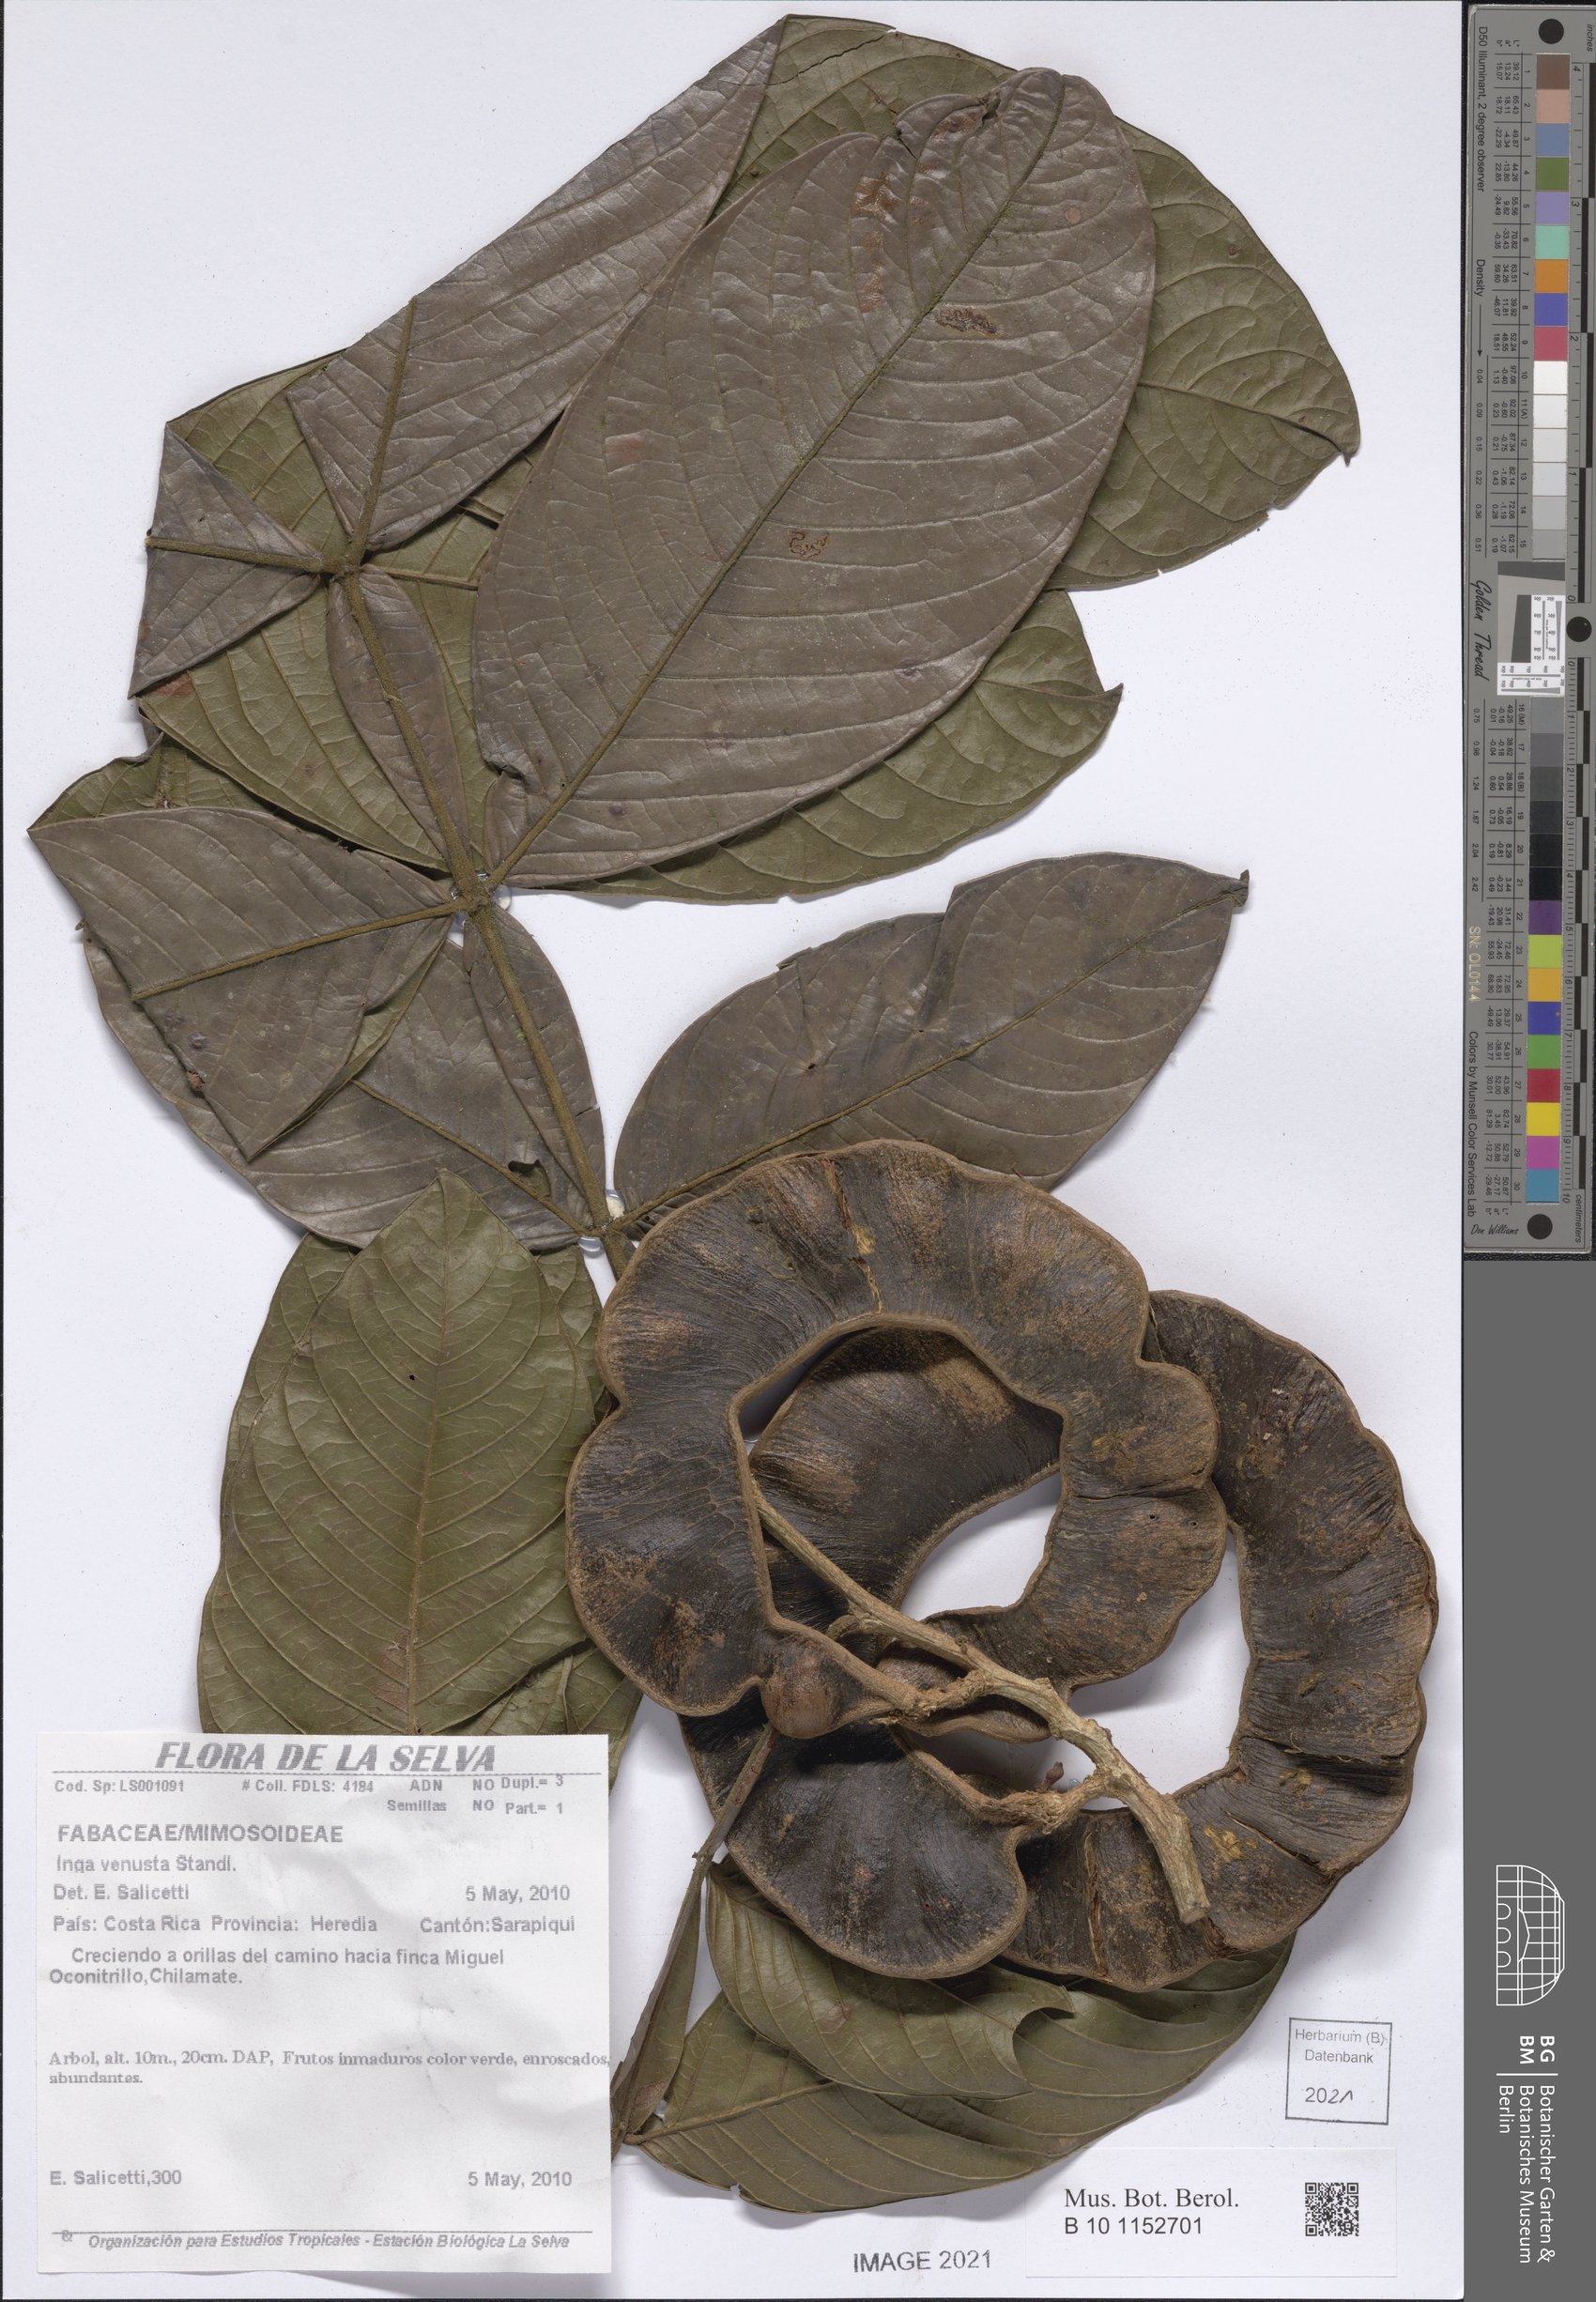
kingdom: Plantae
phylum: Tracheophyta
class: Magnoliopsida
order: Fabales
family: Fabaceae
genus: Inga
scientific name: Inga venusta
